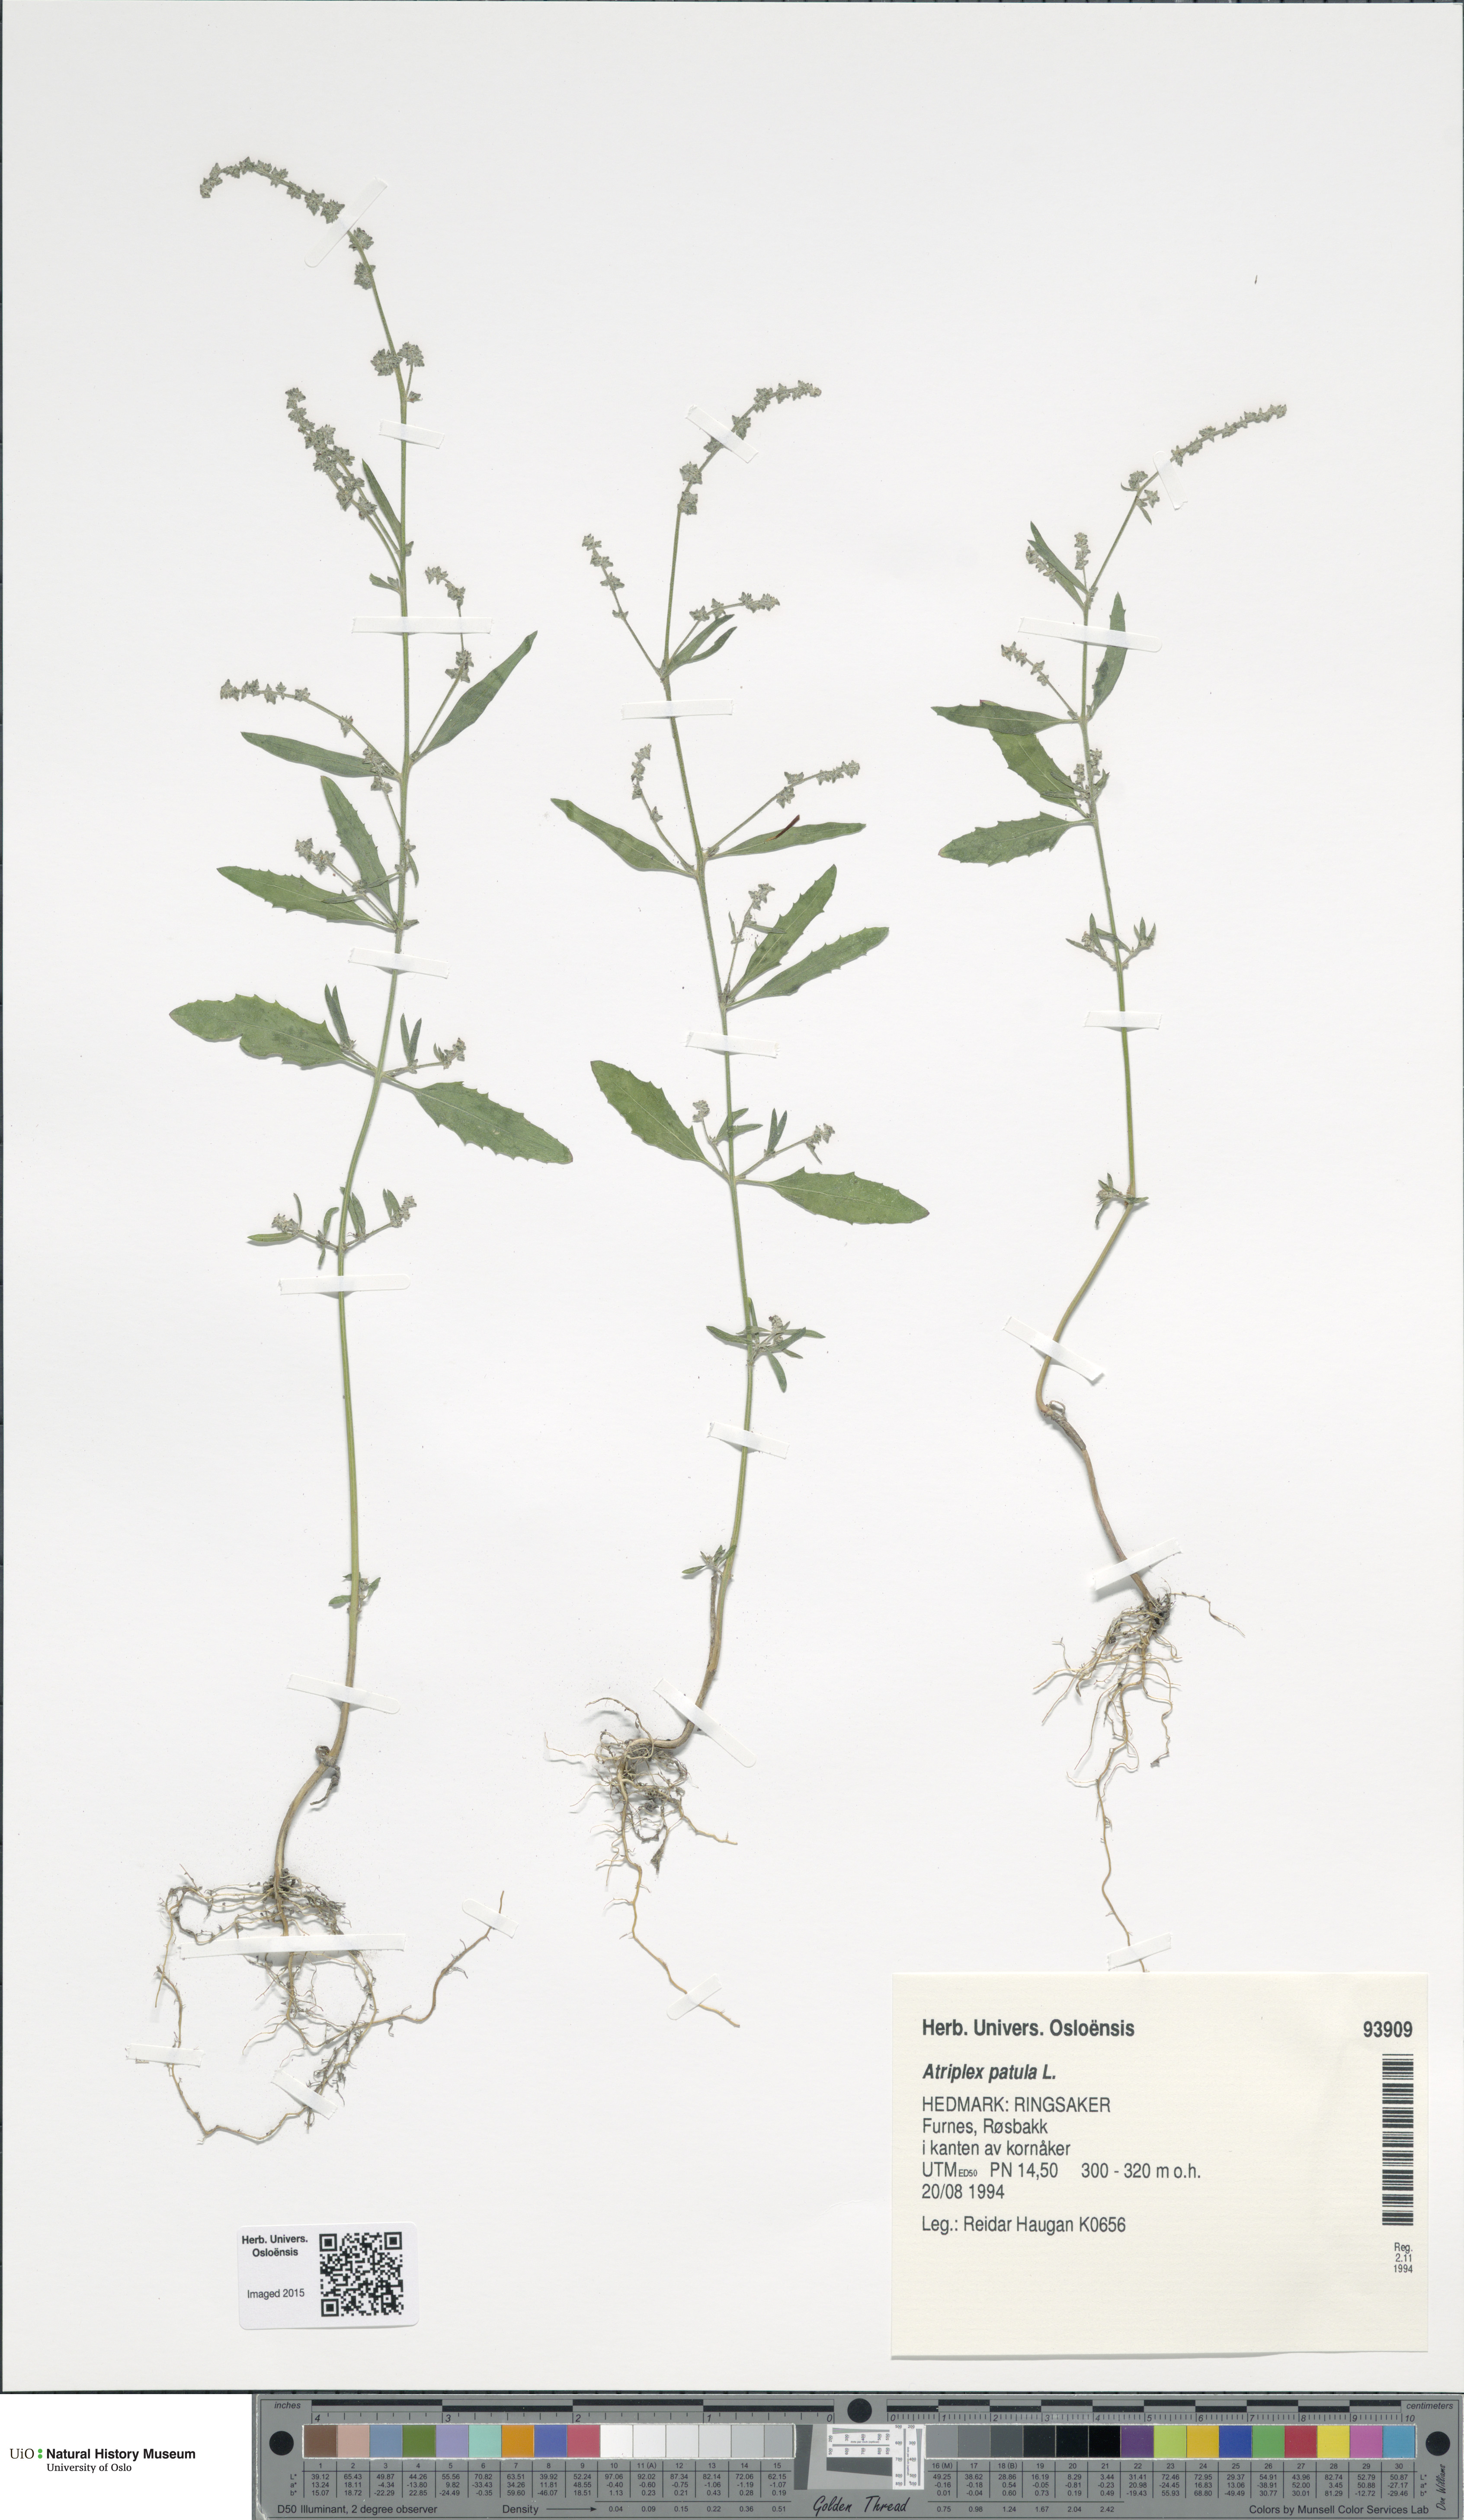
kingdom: Plantae
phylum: Tracheophyta
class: Magnoliopsida
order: Caryophyllales
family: Amaranthaceae
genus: Atriplex
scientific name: Atriplex patula
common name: Common orache
